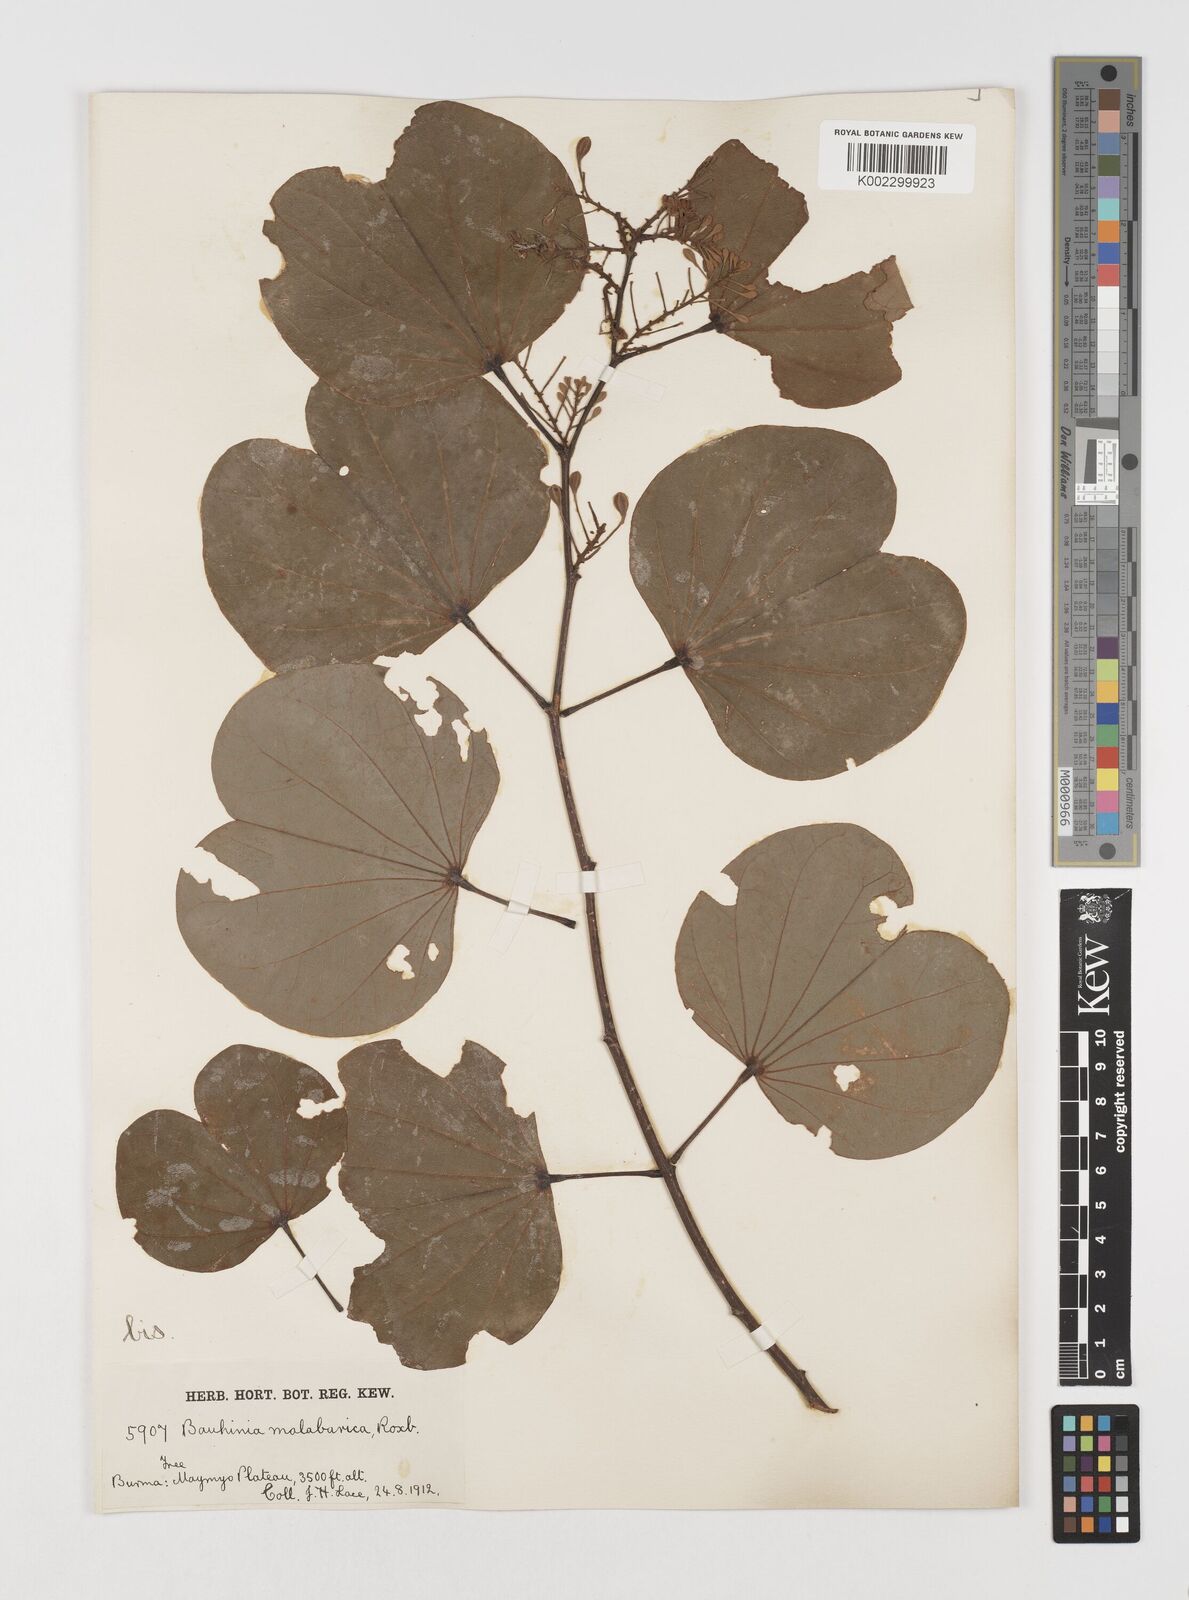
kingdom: Plantae
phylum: Tracheophyta
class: Magnoliopsida
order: Fabales
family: Fabaceae
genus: Piliostigma
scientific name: Piliostigma malabaricum
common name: Malabar bauhinia
